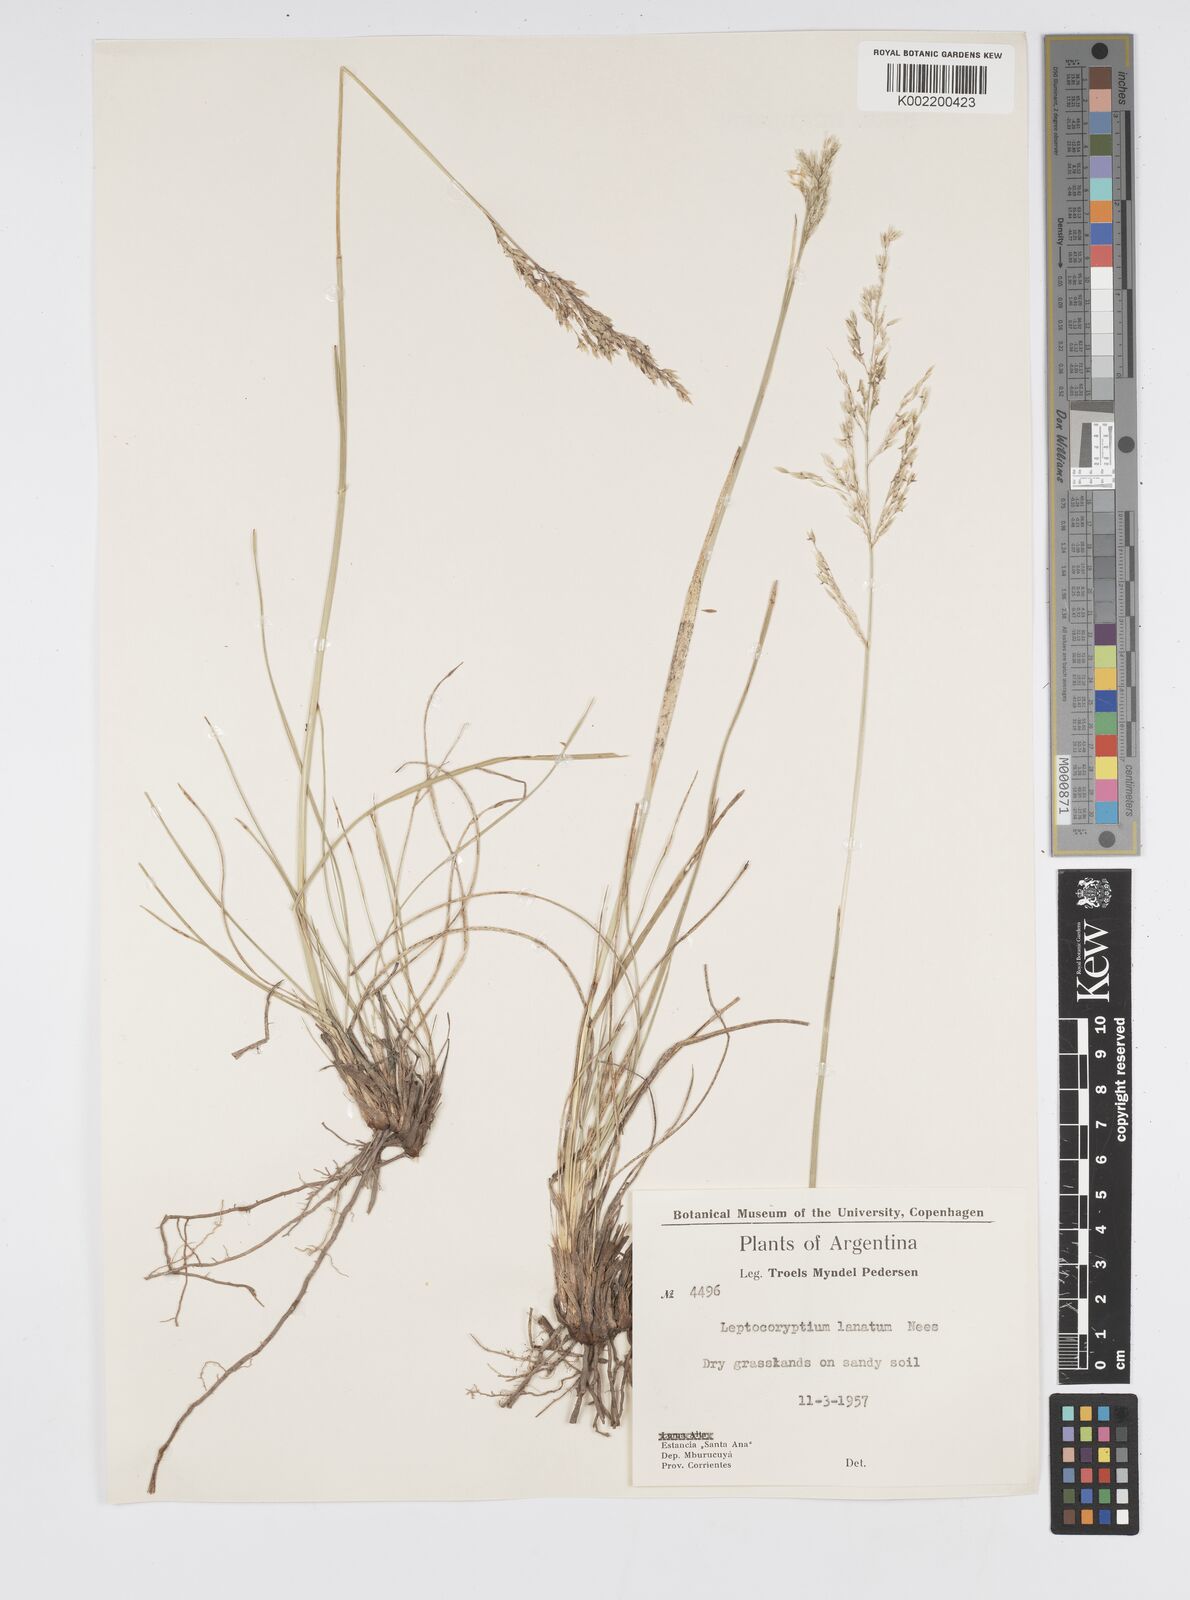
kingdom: Plantae
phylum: Tracheophyta
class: Liliopsida
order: Poales
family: Poaceae
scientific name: Poaceae
